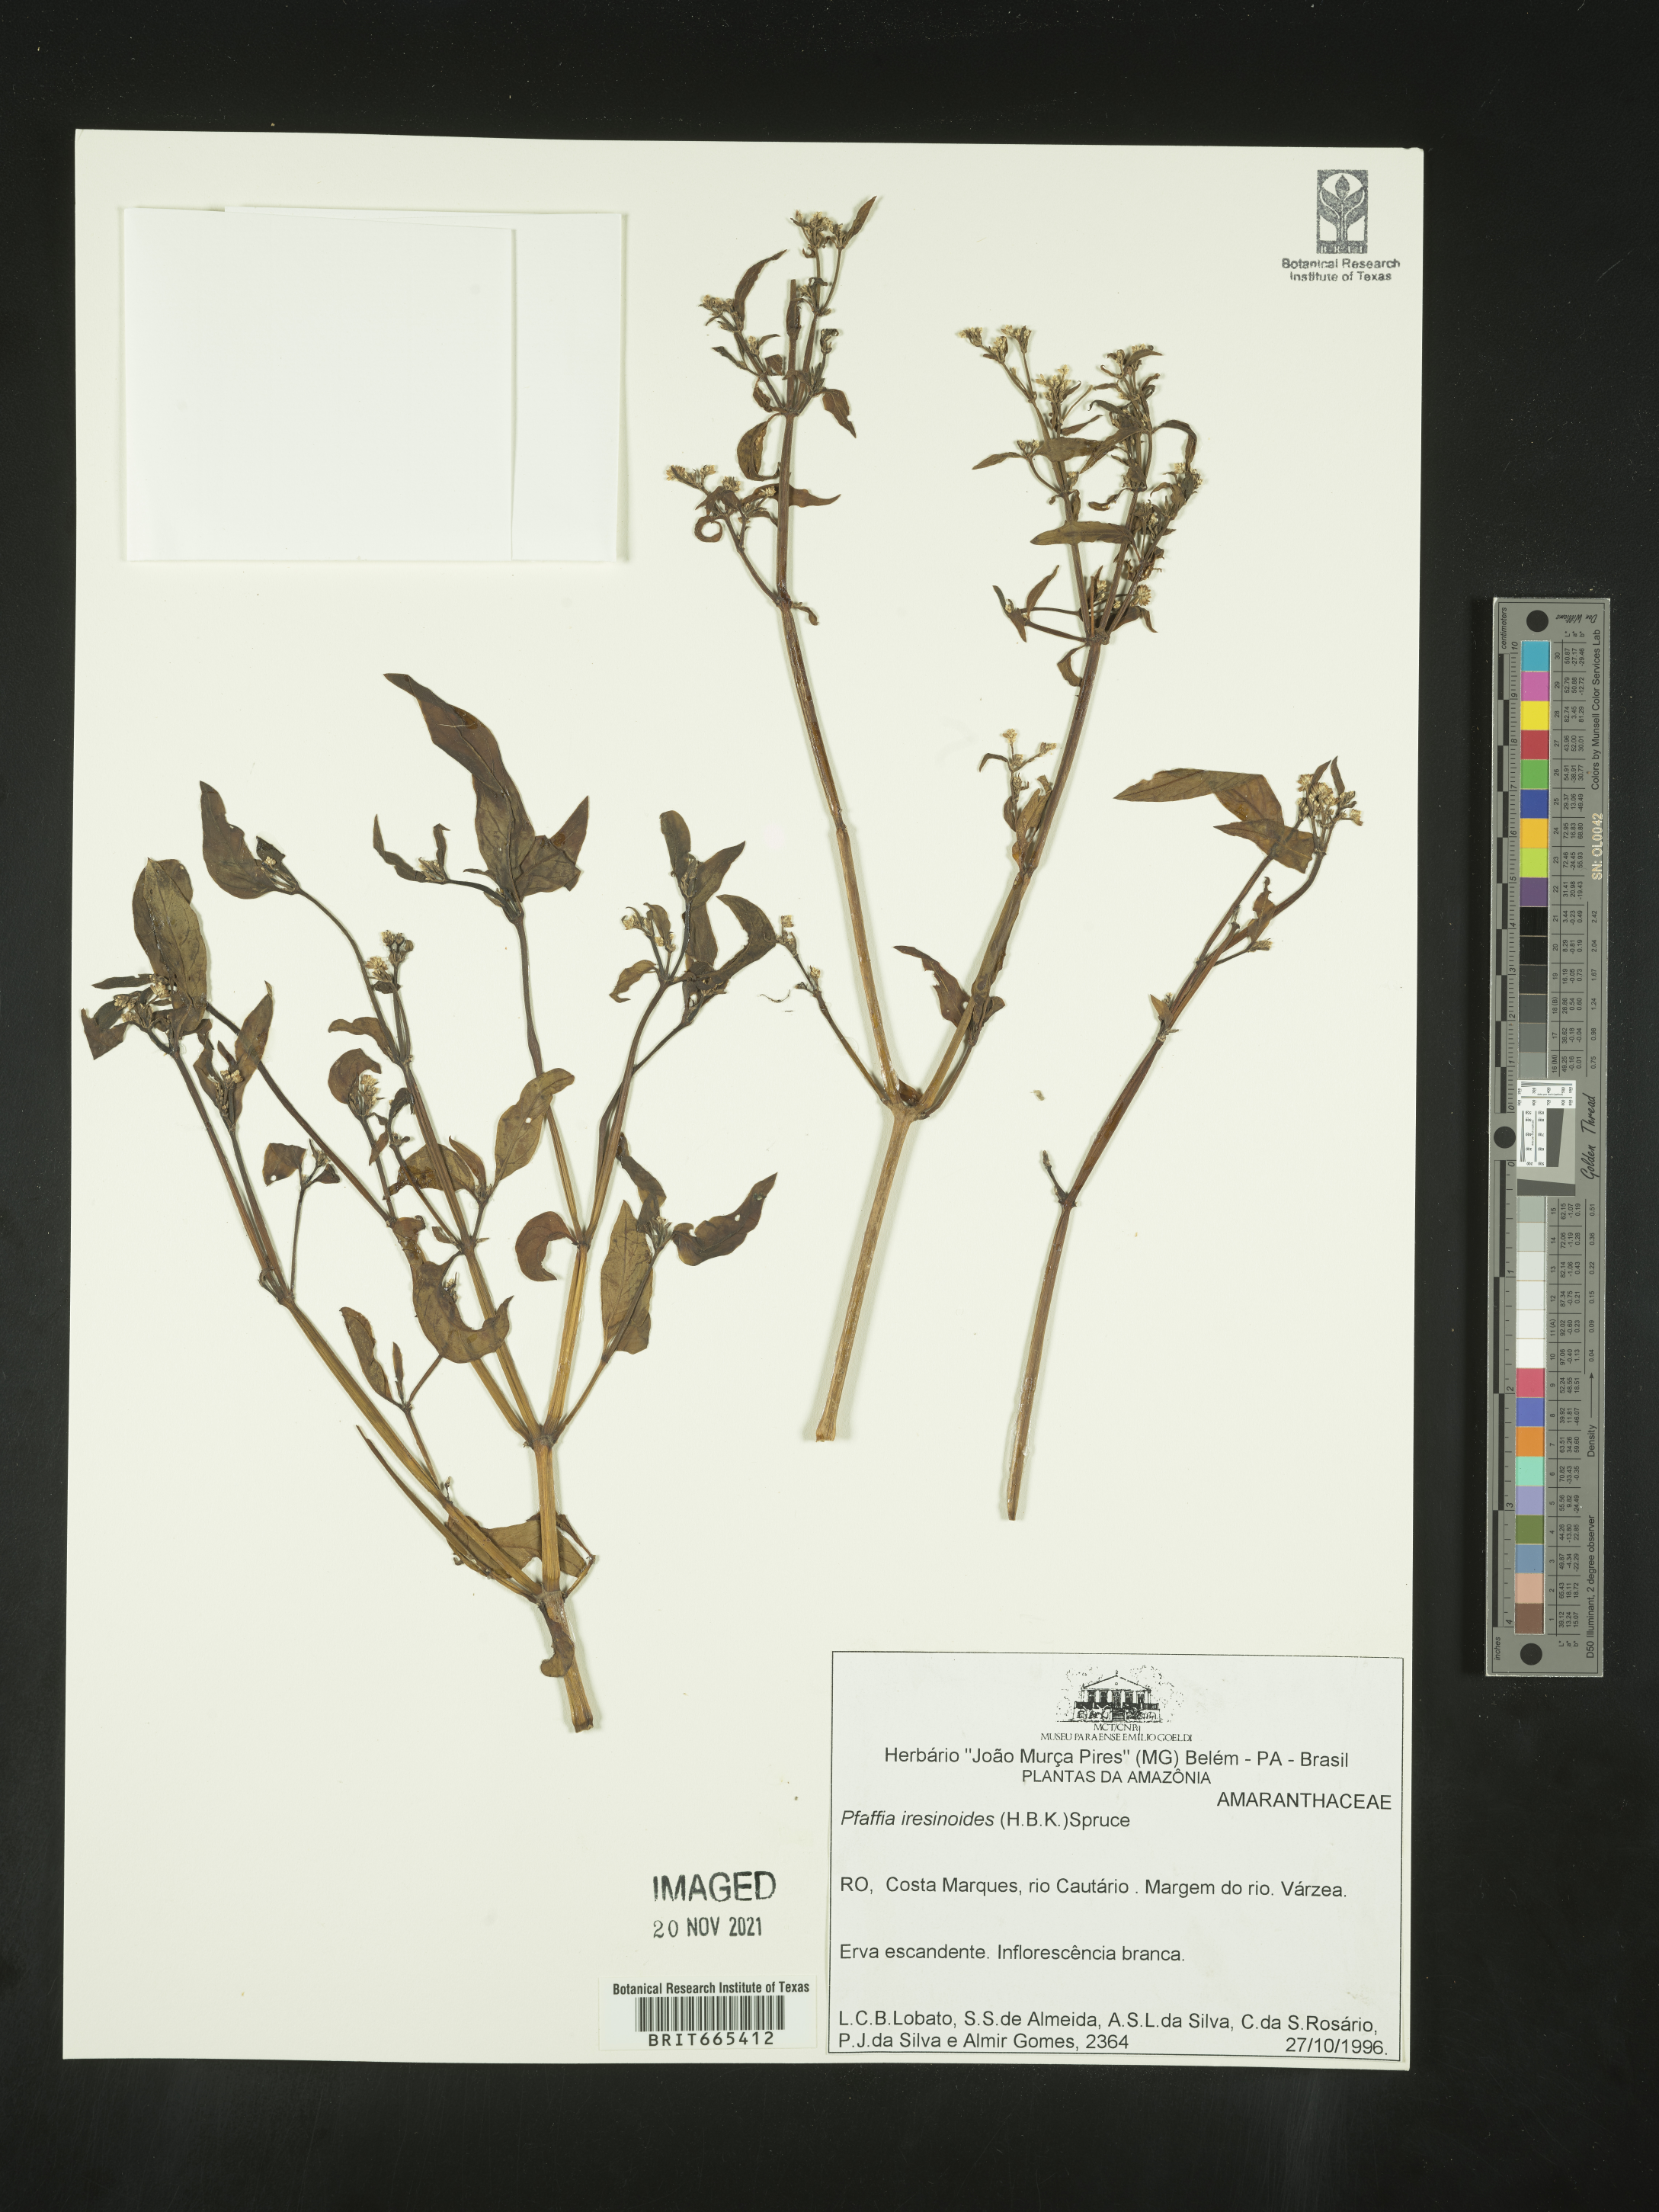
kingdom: Plantae
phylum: Tracheophyta
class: Magnoliopsida
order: Caryophyllales
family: Amaranthaceae
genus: Pfaffia
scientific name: Pfaffia
